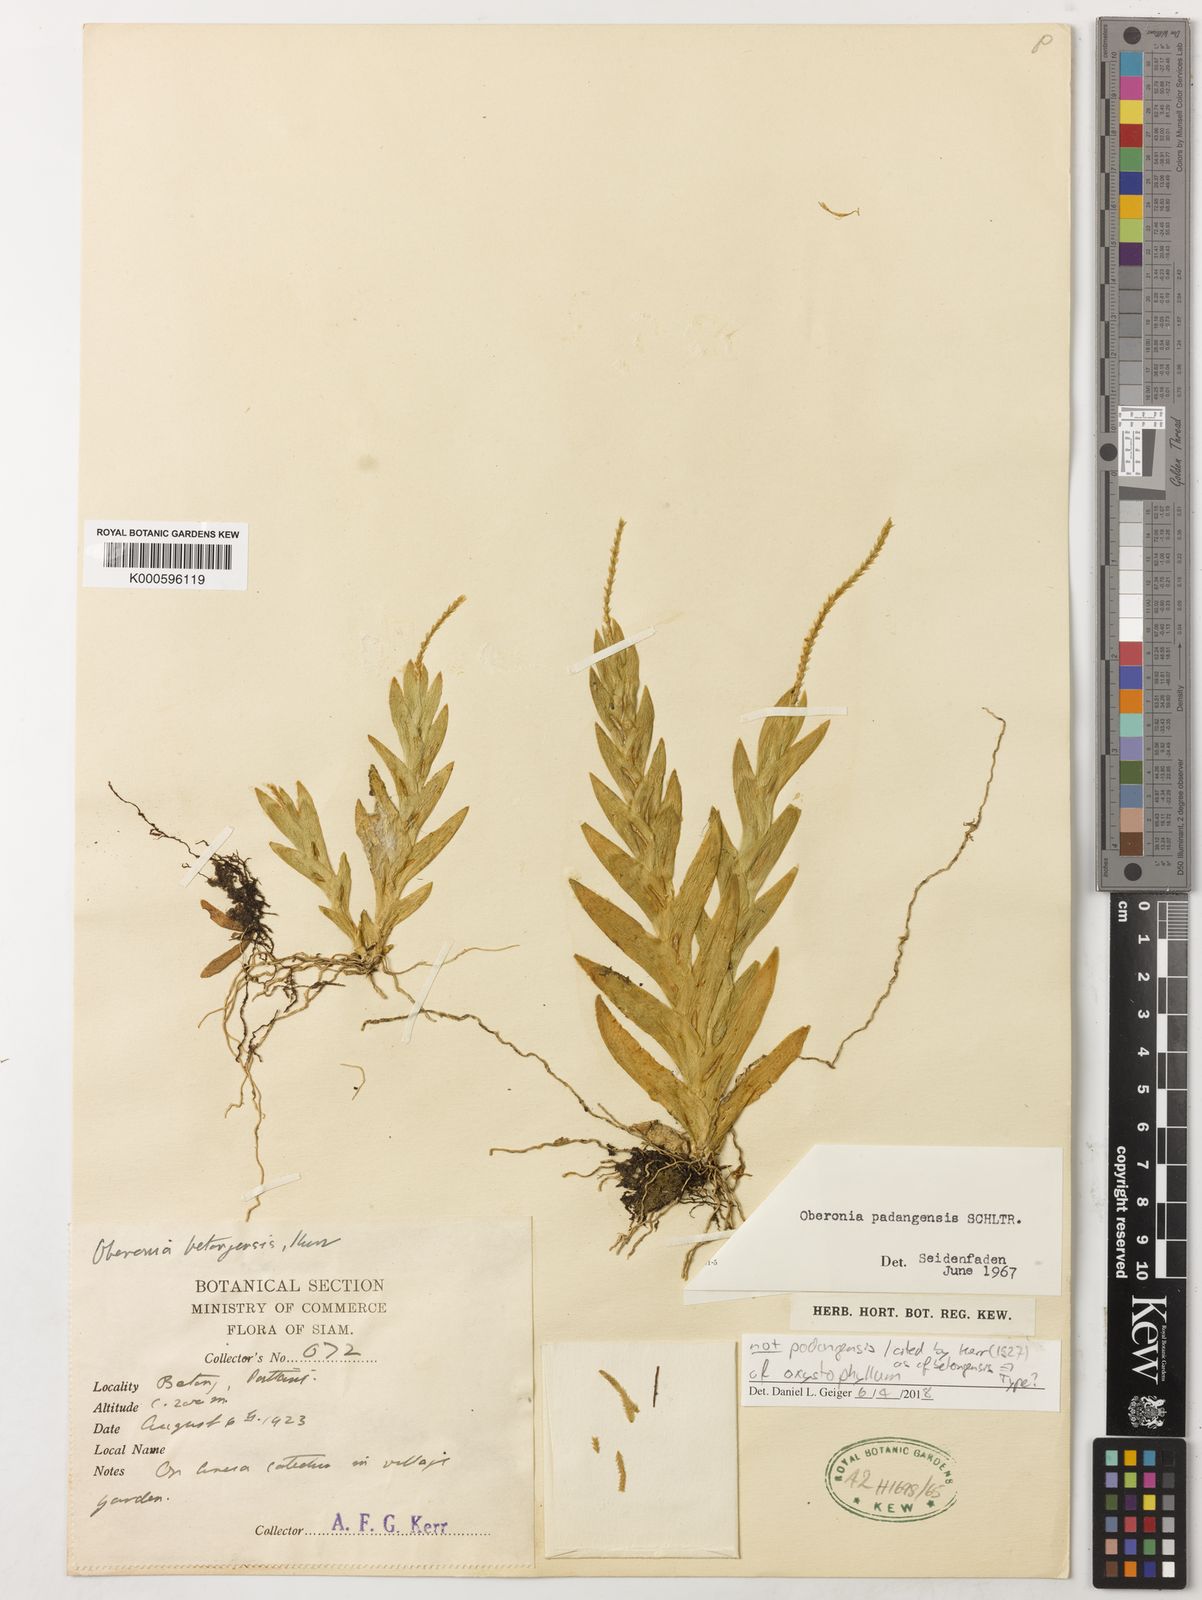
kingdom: Plantae
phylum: Tracheophyta
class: Liliopsida
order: Asparagales
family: Orchidaceae
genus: Oberonia
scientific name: Oberonia padangensis
